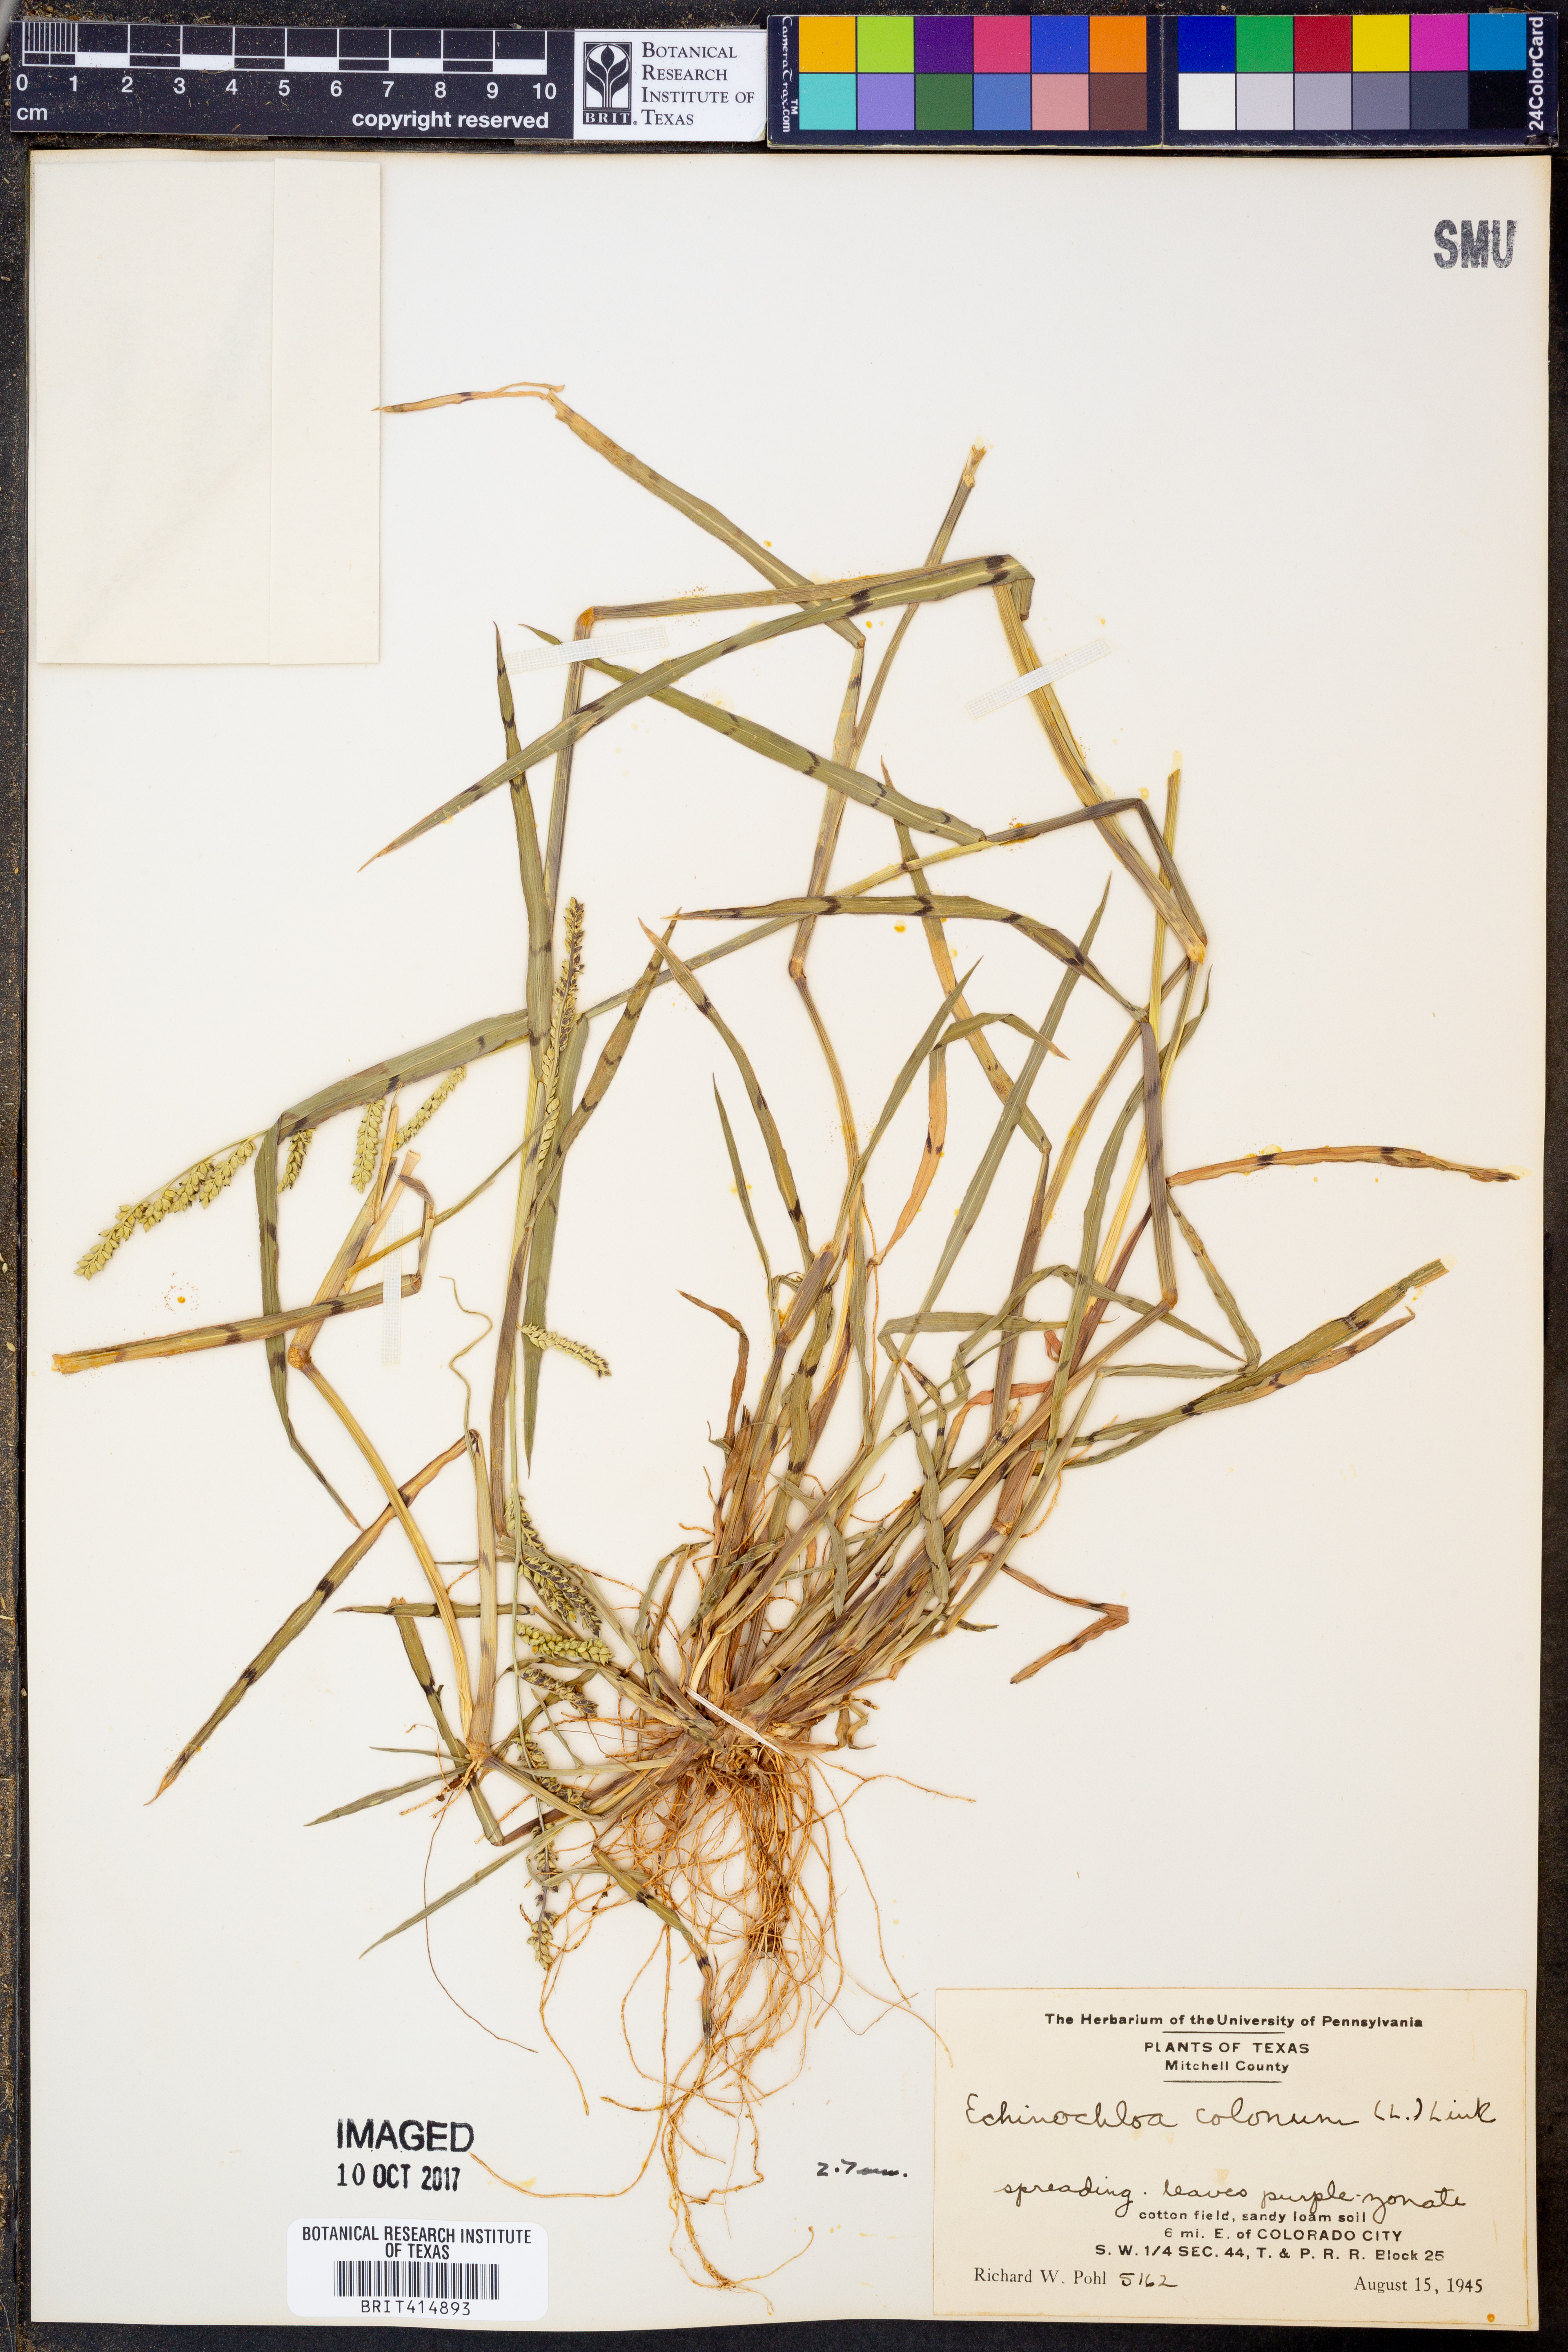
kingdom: Plantae
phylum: Tracheophyta
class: Liliopsida
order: Poales
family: Poaceae
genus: Echinochloa
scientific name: Echinochloa colonum
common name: Jungle rice
